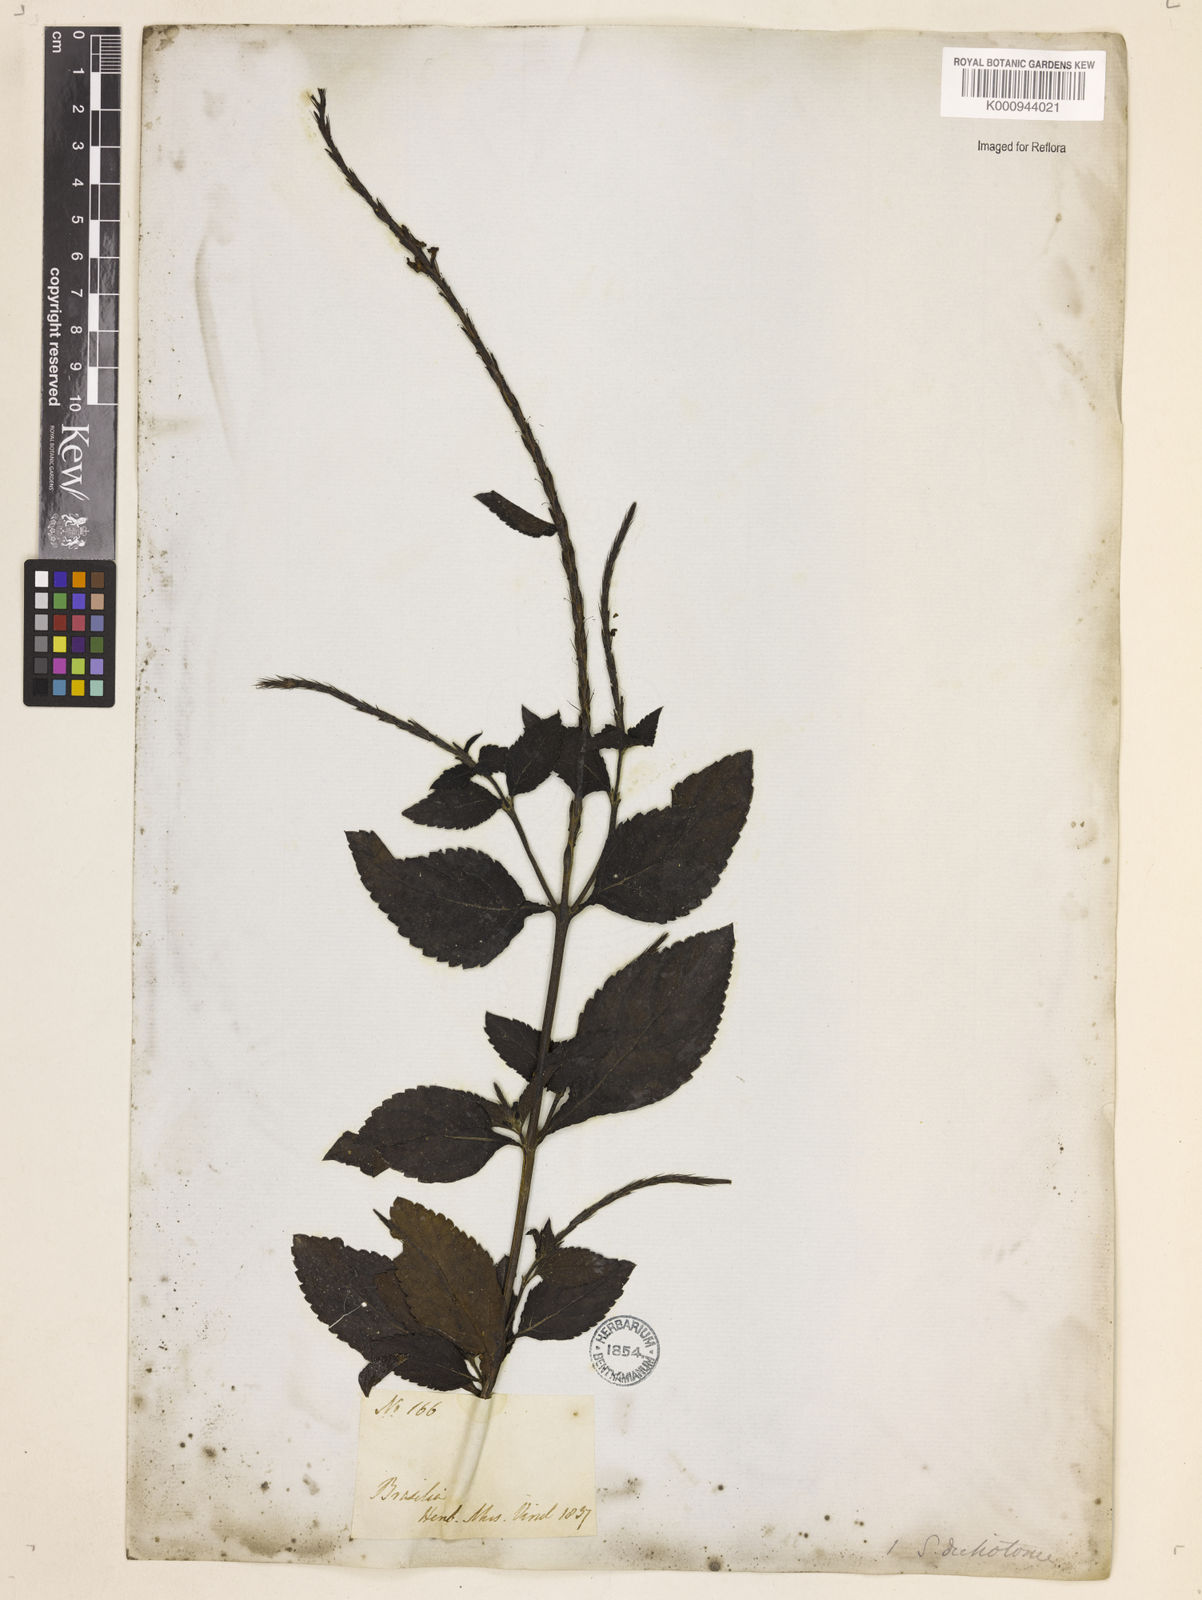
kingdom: Plantae
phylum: Tracheophyta
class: Magnoliopsida
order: Lamiales
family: Verbenaceae
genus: Aloysia
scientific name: Aloysia
